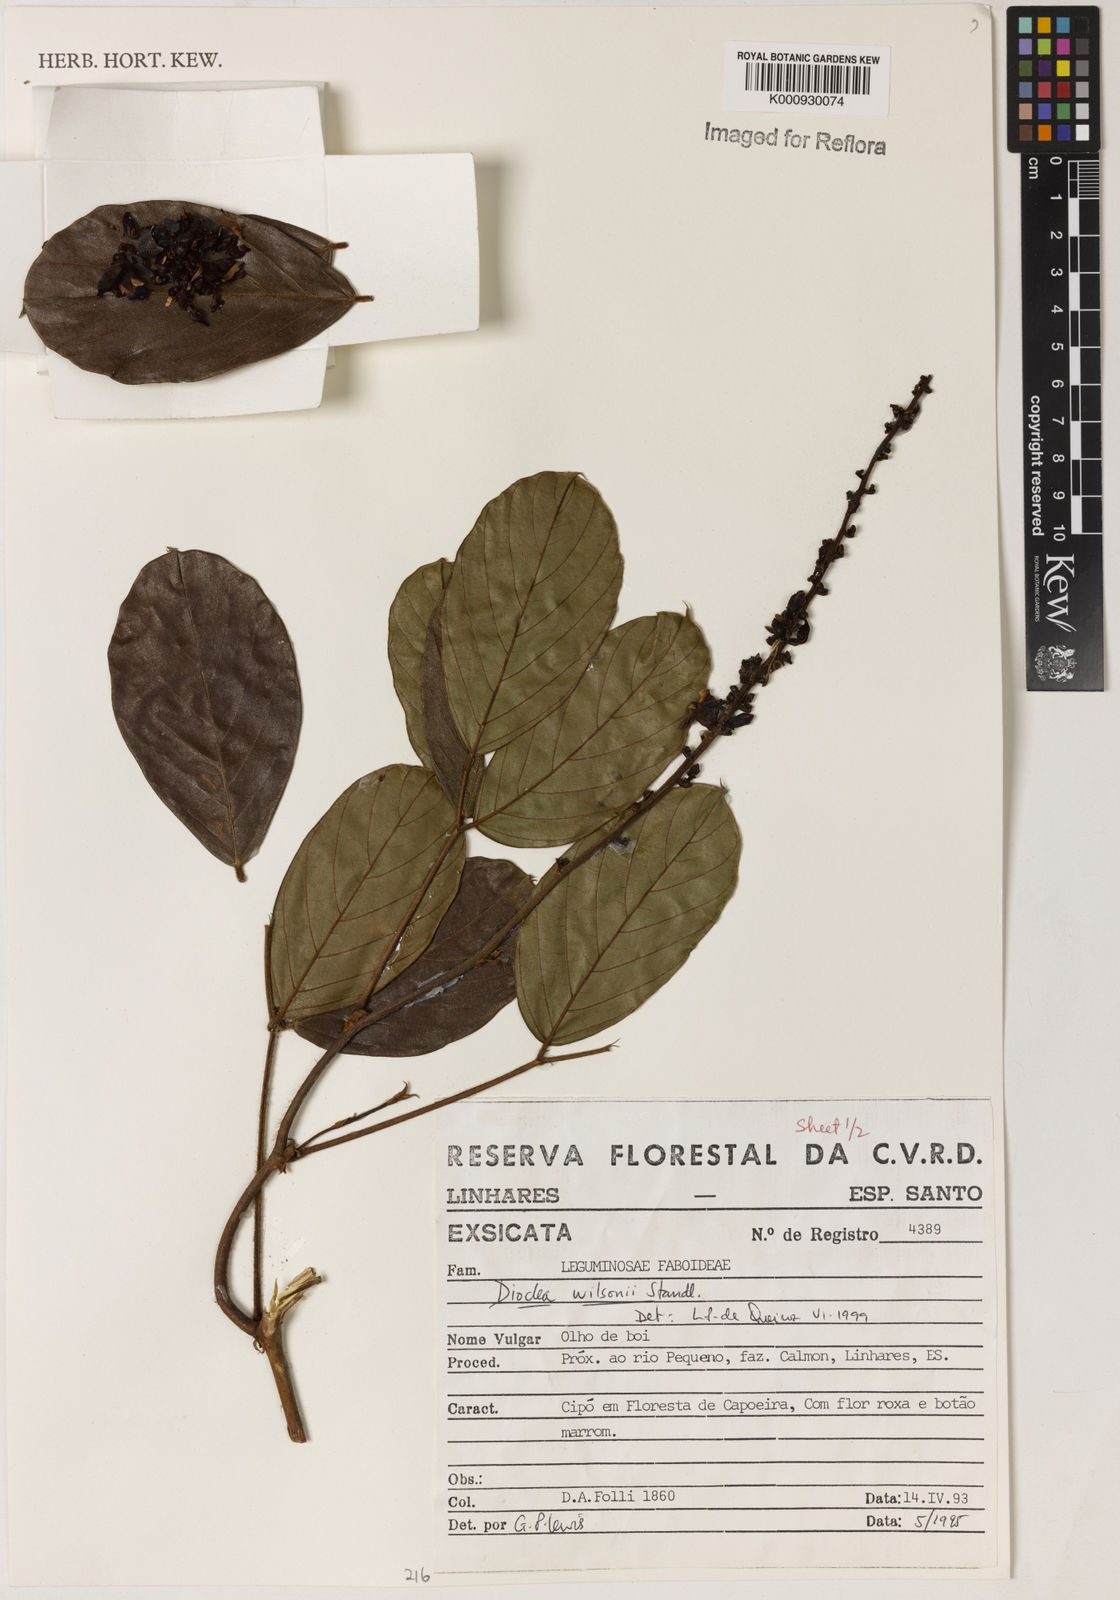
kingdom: Plantae
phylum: Tracheophyta
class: Magnoliopsida
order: Fabales
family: Fabaceae
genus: Macropsychanthus
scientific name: Macropsychanthus wilsonii
